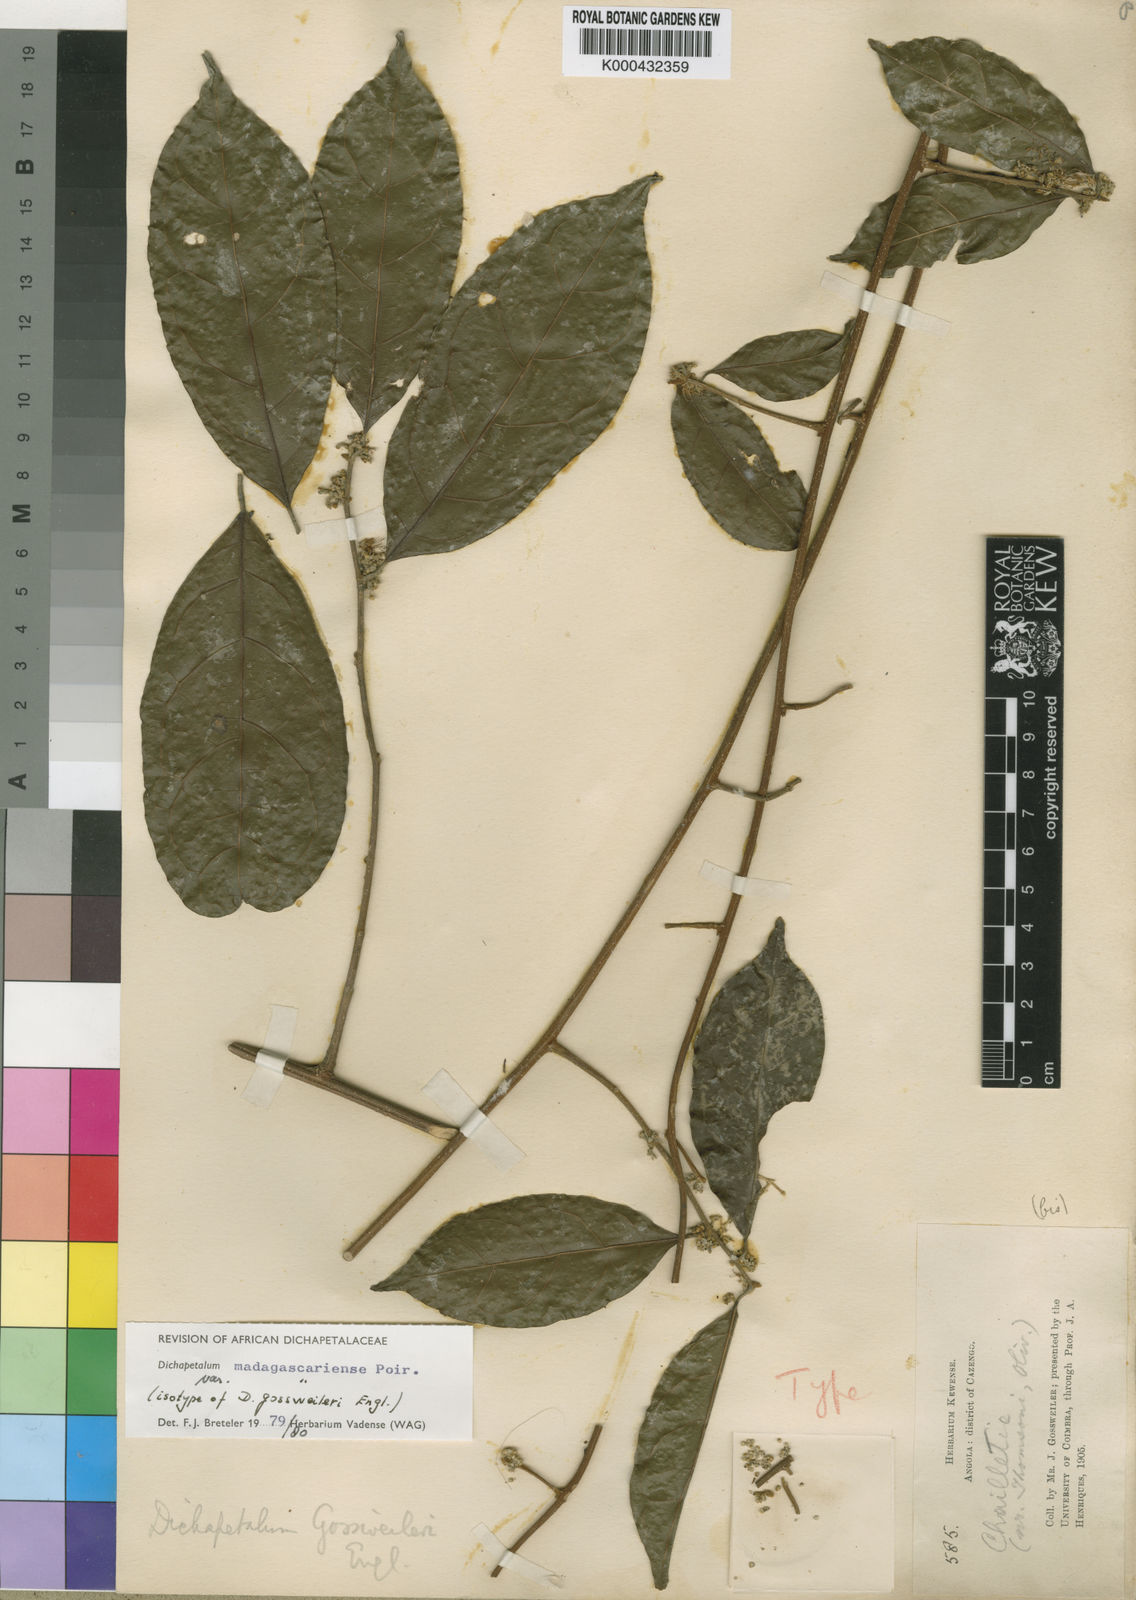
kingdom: Plantae
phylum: Tracheophyta
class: Magnoliopsida
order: Malpighiales
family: Dichapetalaceae
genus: Dichapetalum
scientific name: Dichapetalum madagascariense
